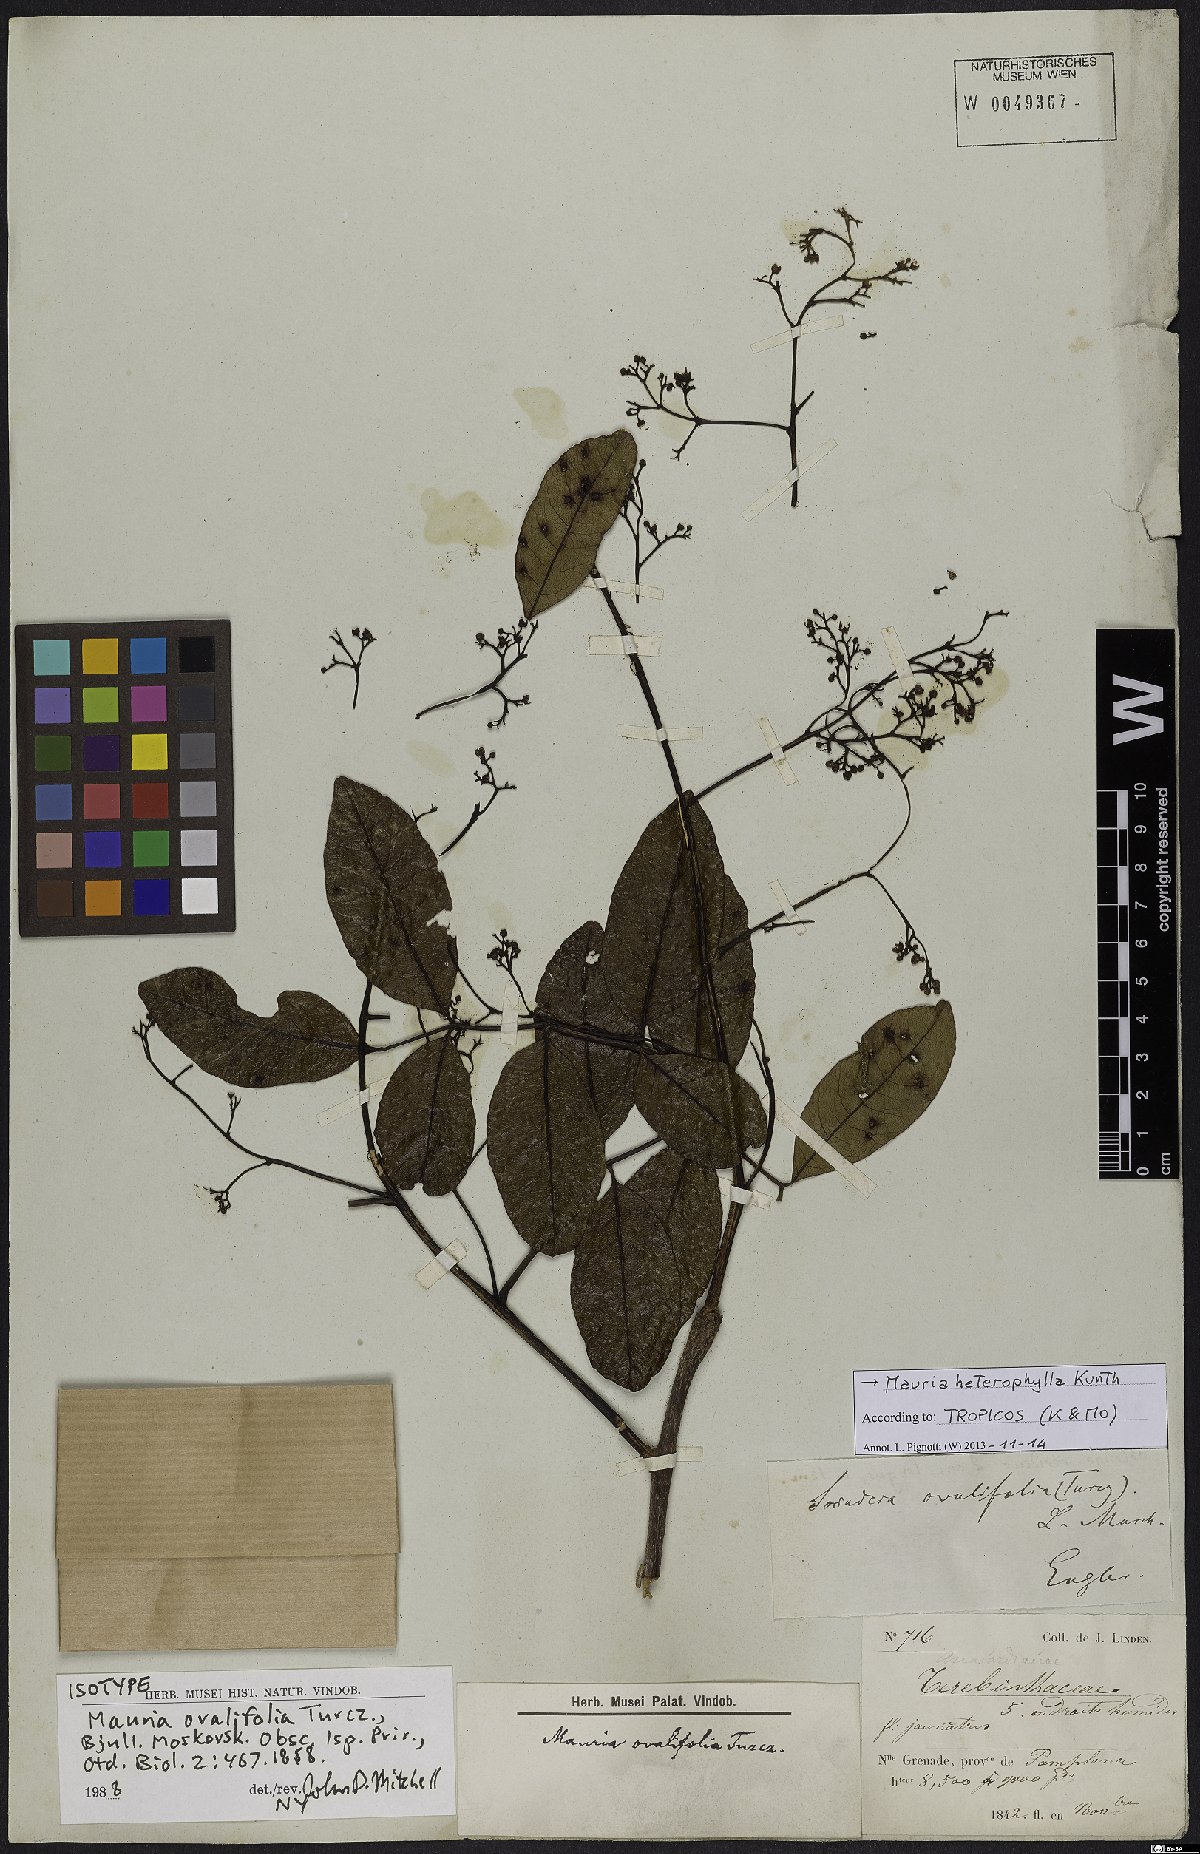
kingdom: Plantae
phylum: Tracheophyta
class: Magnoliopsida
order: Sapindales
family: Anacardiaceae
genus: Mauria
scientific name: Mauria heterophylla
